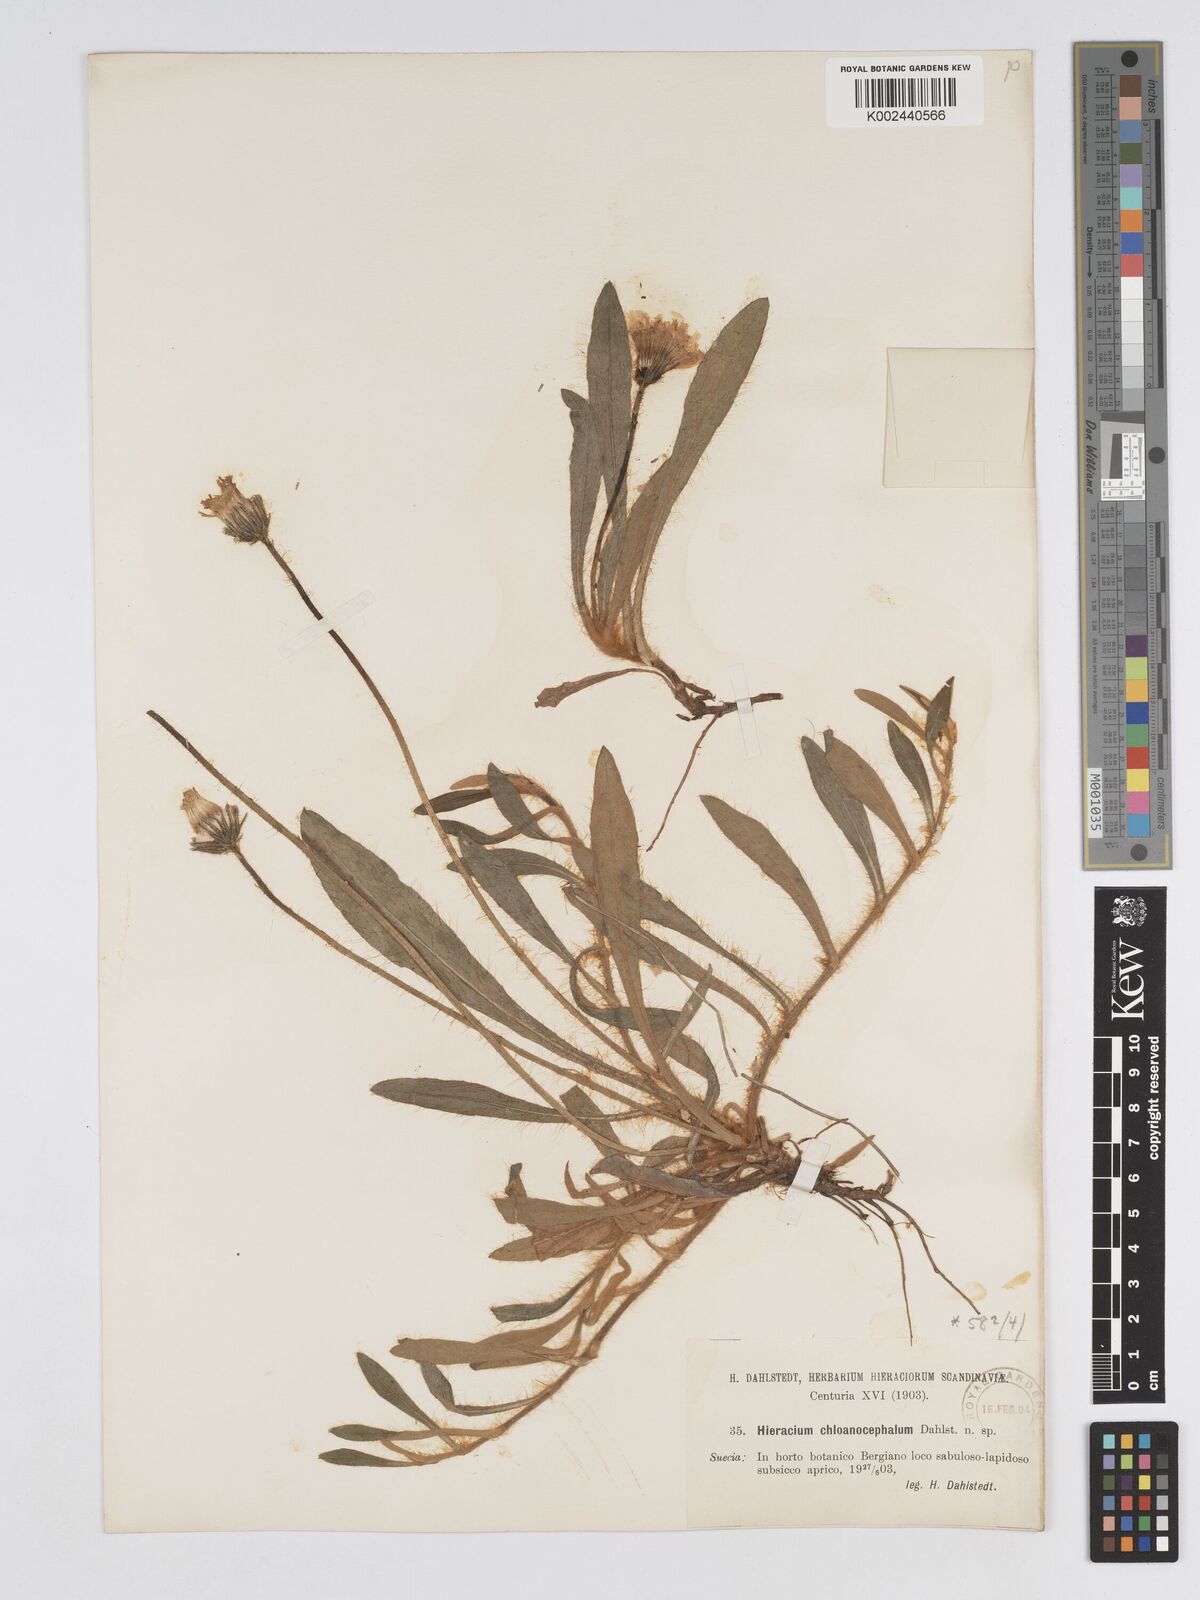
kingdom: Plantae
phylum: Tracheophyta
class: Magnoliopsida
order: Asterales
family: Asteraceae
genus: Pilosella
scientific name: Pilosella longisquama
